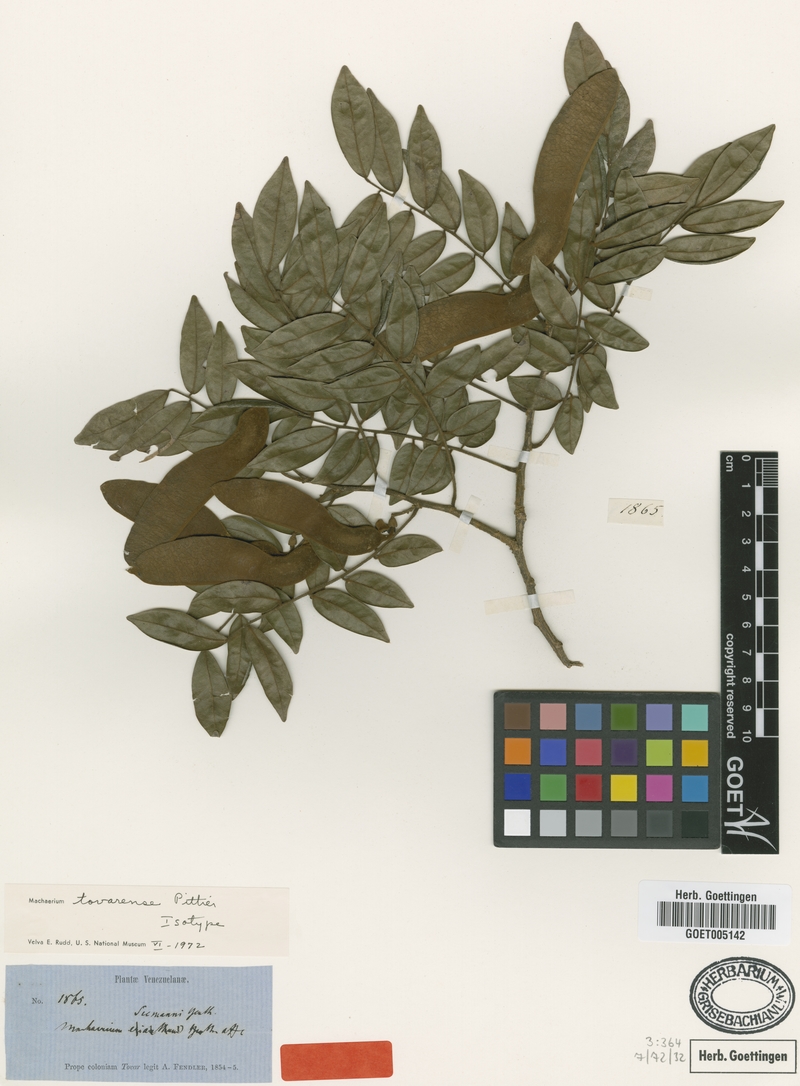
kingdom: Plantae
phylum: Tracheophyta
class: Magnoliopsida
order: Fabales
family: Fabaceae
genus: Machaerium
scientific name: Machaerium tovarense
